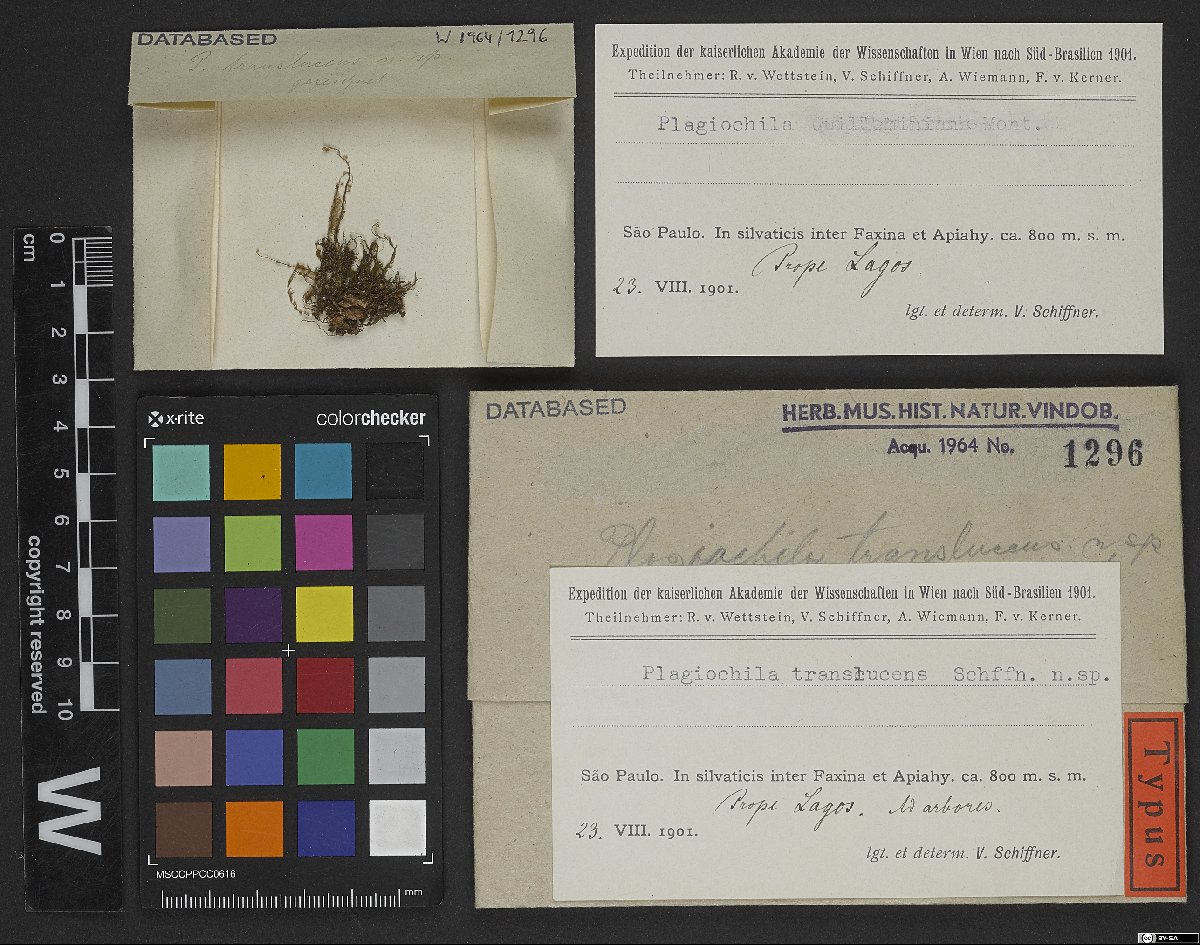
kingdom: Plantae
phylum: Marchantiophyta
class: Jungermanniopsida
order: Jungermanniales
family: Plagiochilaceae
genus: Plagiochila
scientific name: Plagiochila subplana
